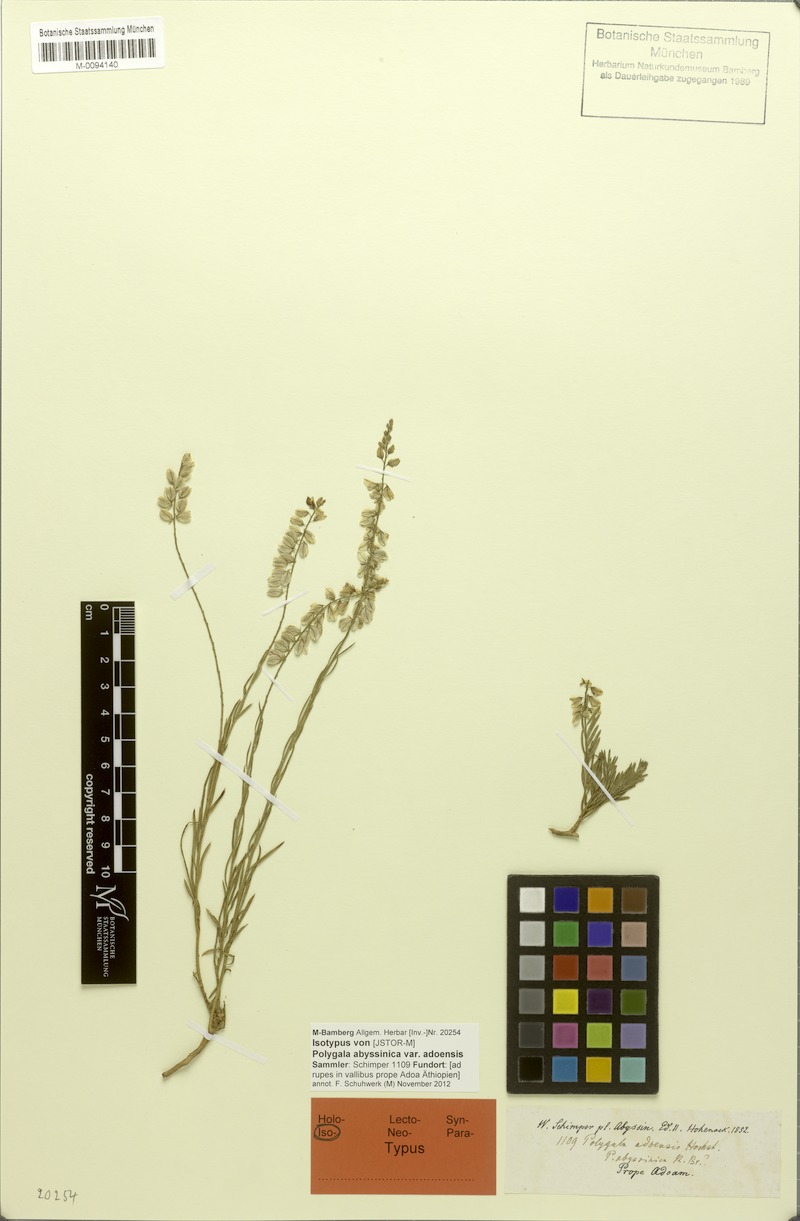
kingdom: Plantae
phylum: Tracheophyta
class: Magnoliopsida
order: Fabales
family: Polygalaceae
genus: Polygala
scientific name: Polygala rupicola
